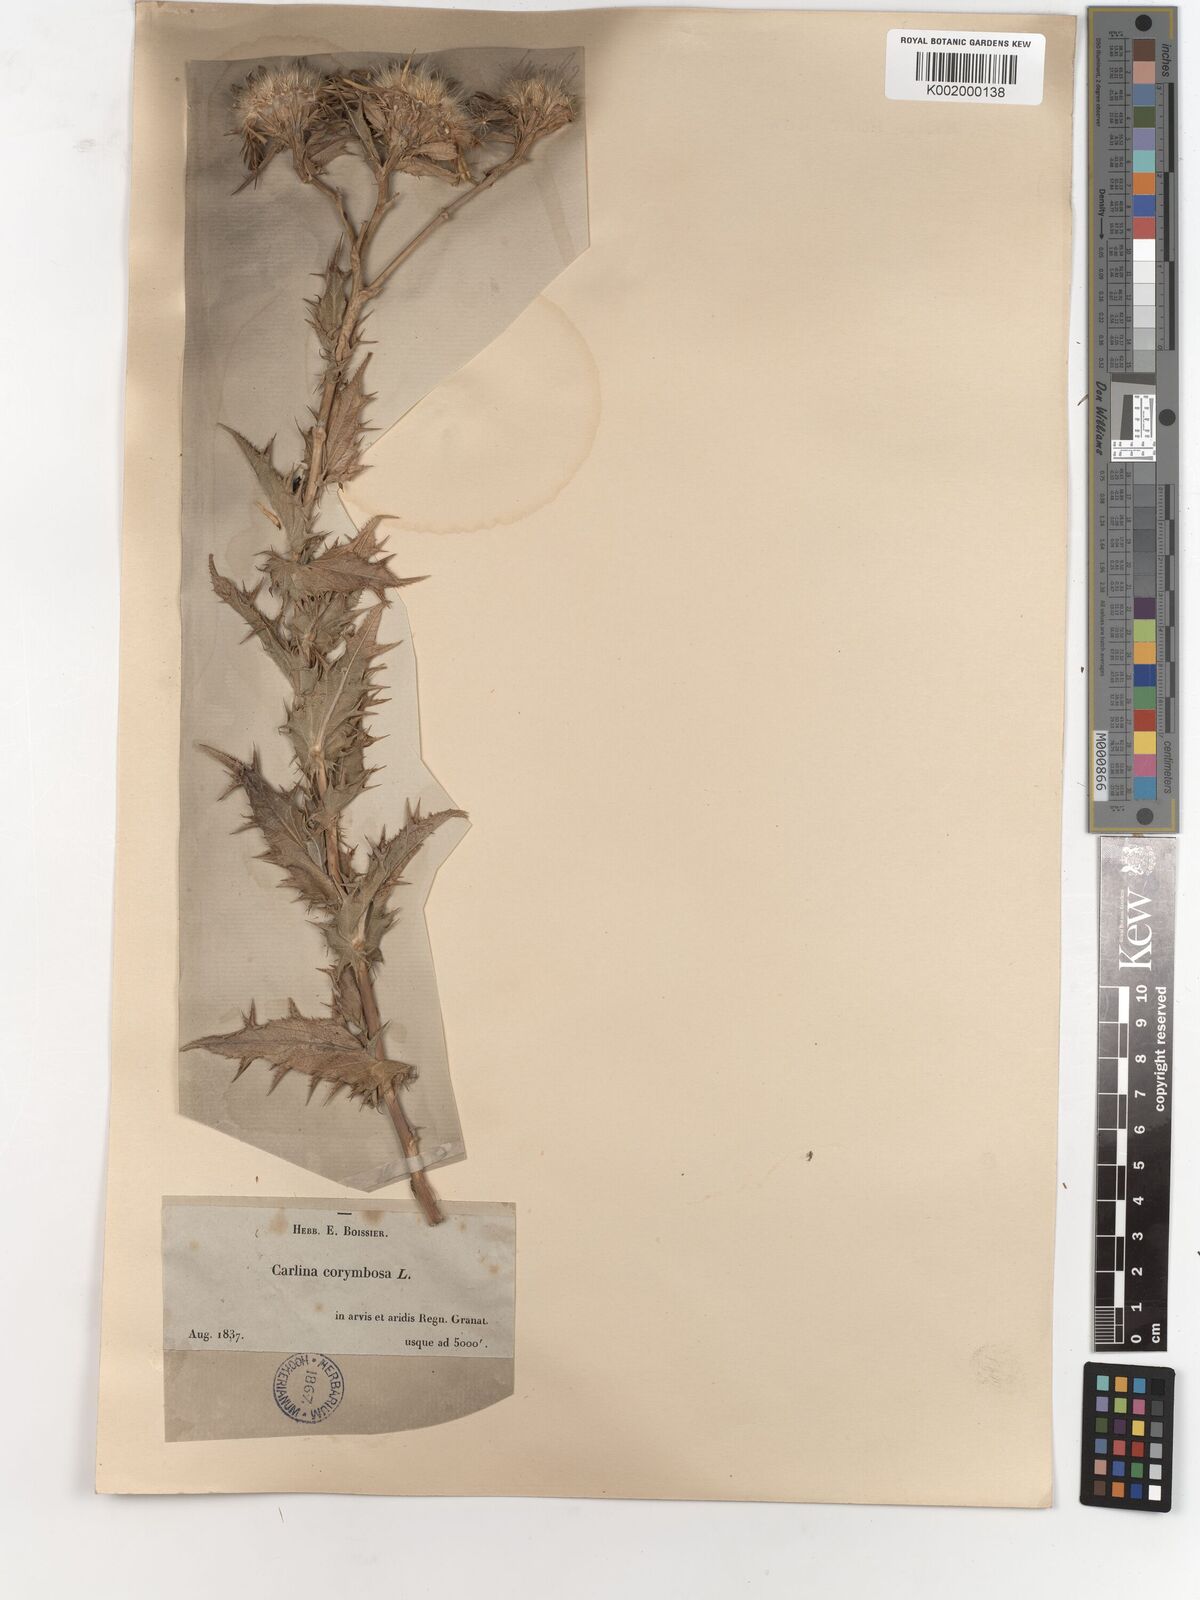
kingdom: Plantae
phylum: Tracheophyta
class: Magnoliopsida
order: Asterales
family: Asteraceae
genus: Carlina
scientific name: Carlina corymbosa
